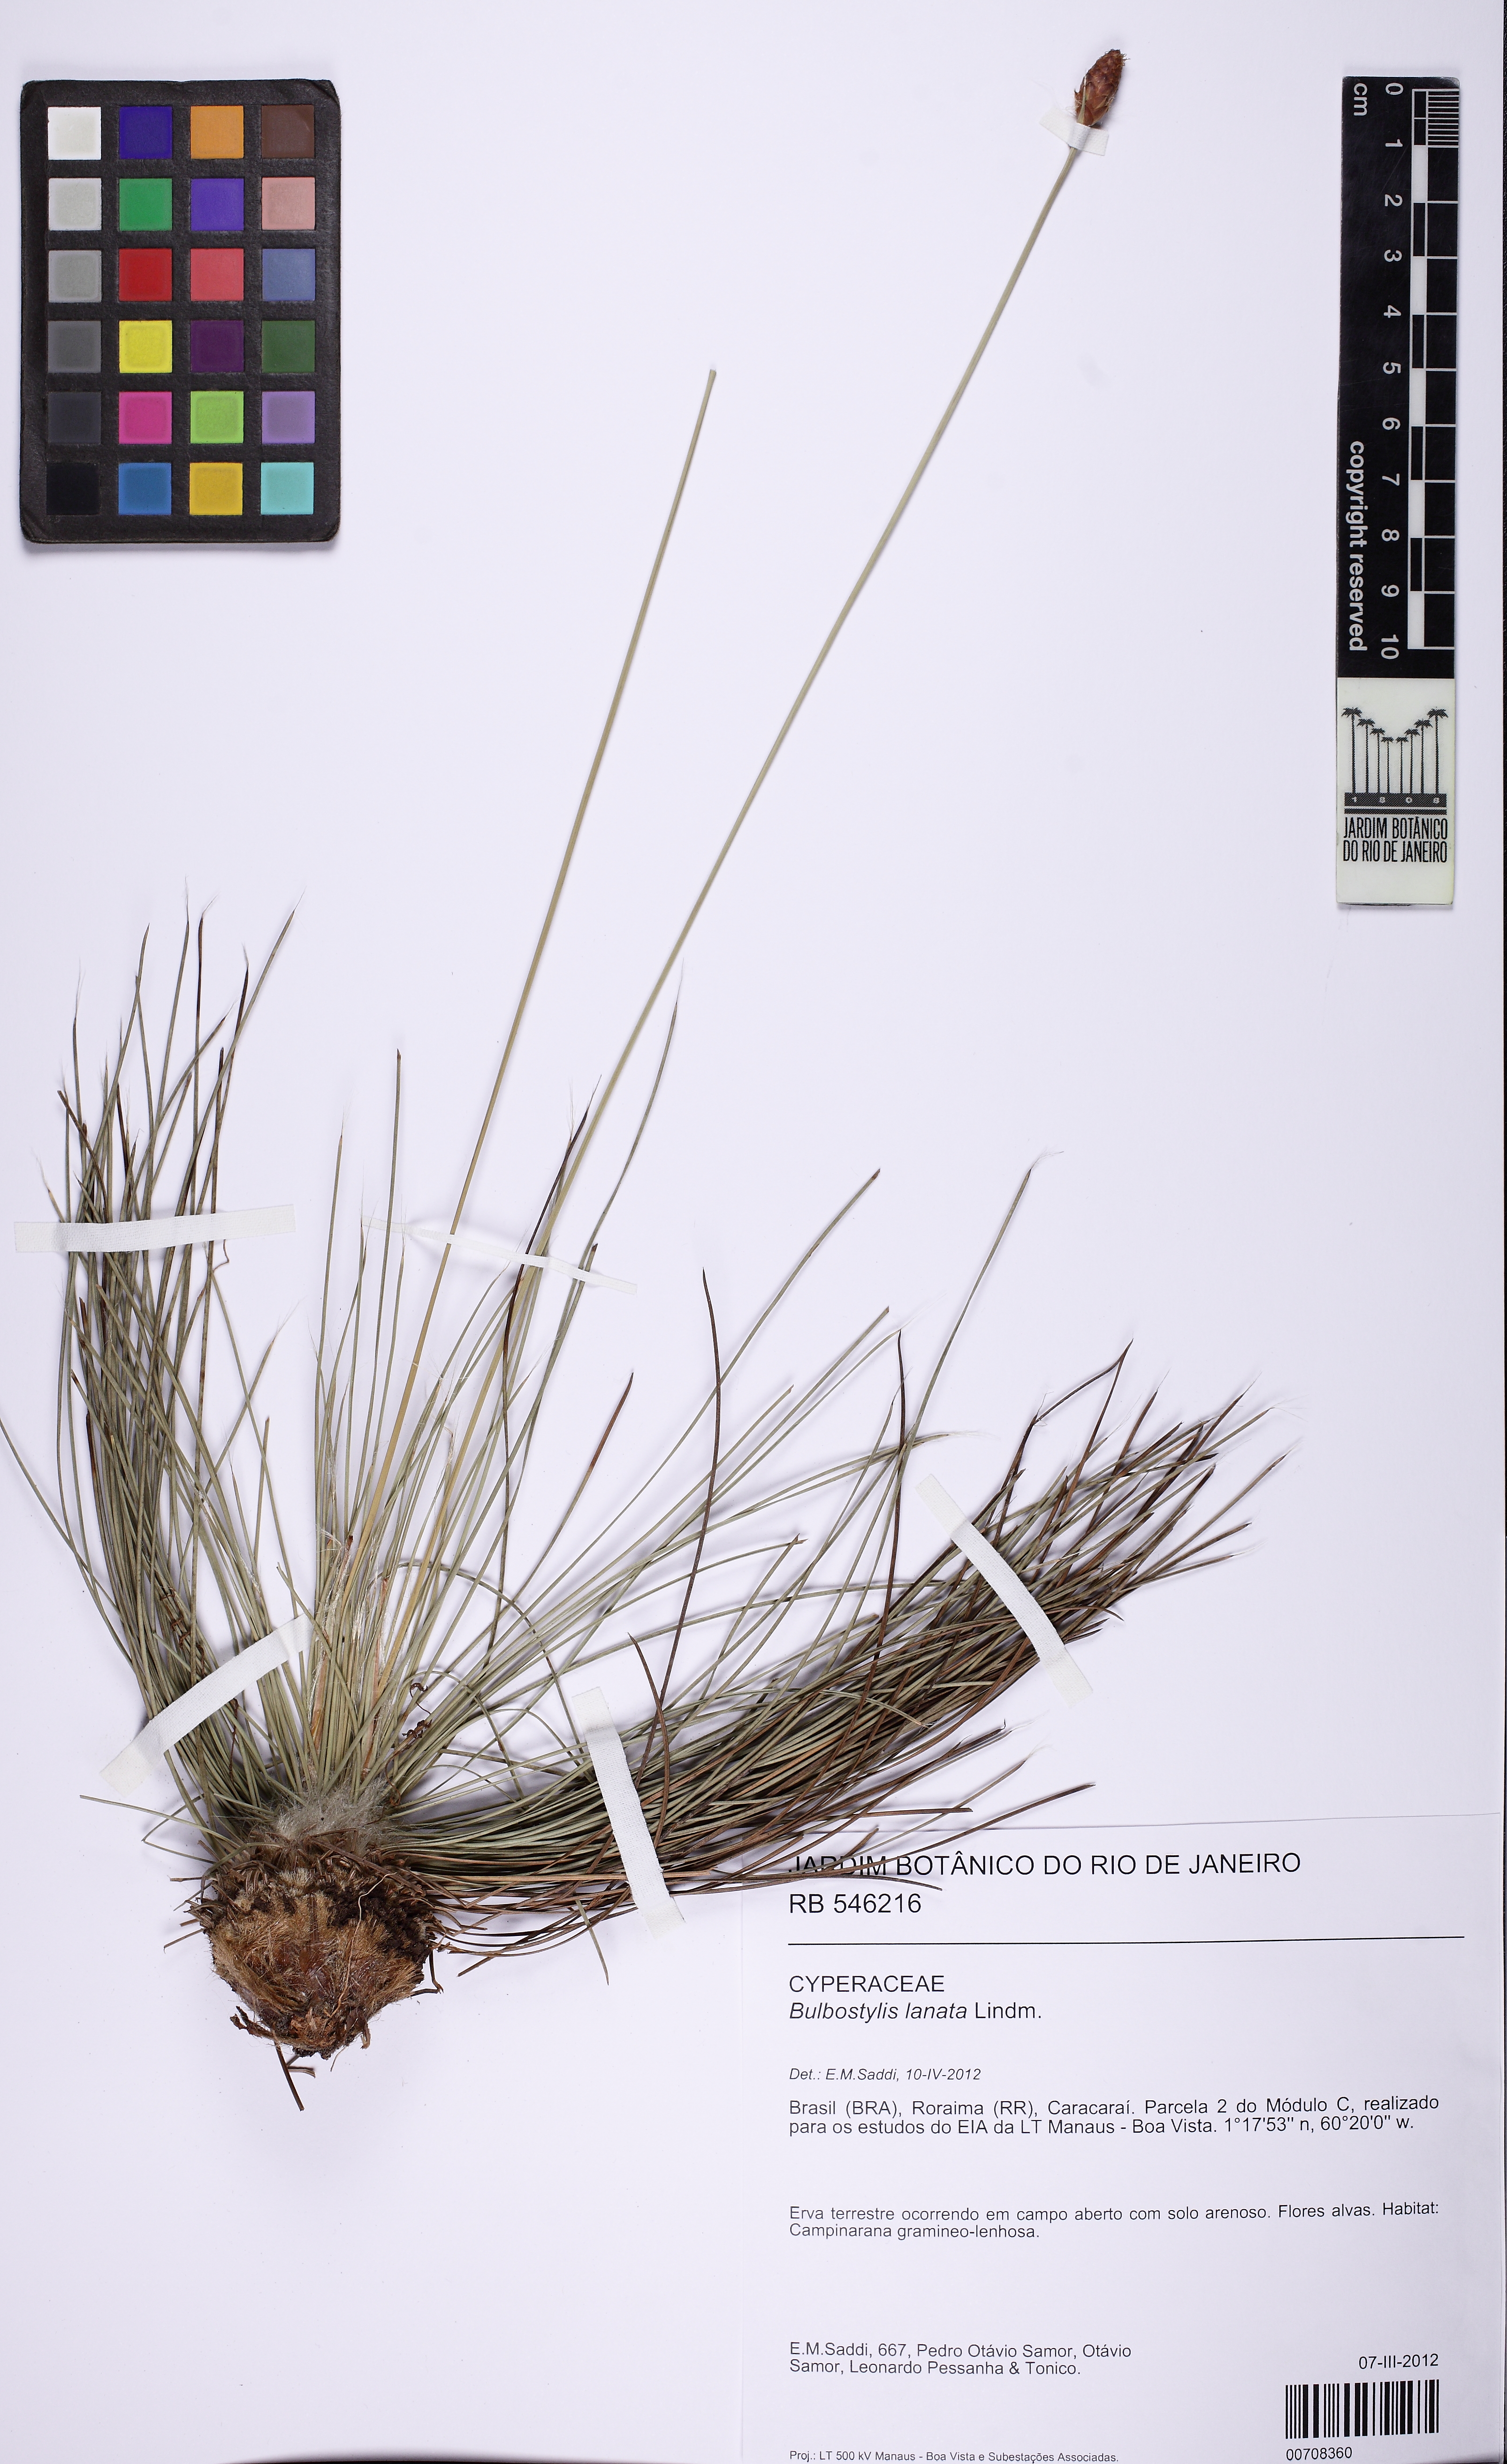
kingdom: Plantae
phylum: Tracheophyta
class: Liliopsida
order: Poales
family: Cyperaceae
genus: Bulbostylis
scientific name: Bulbostylis lanata
